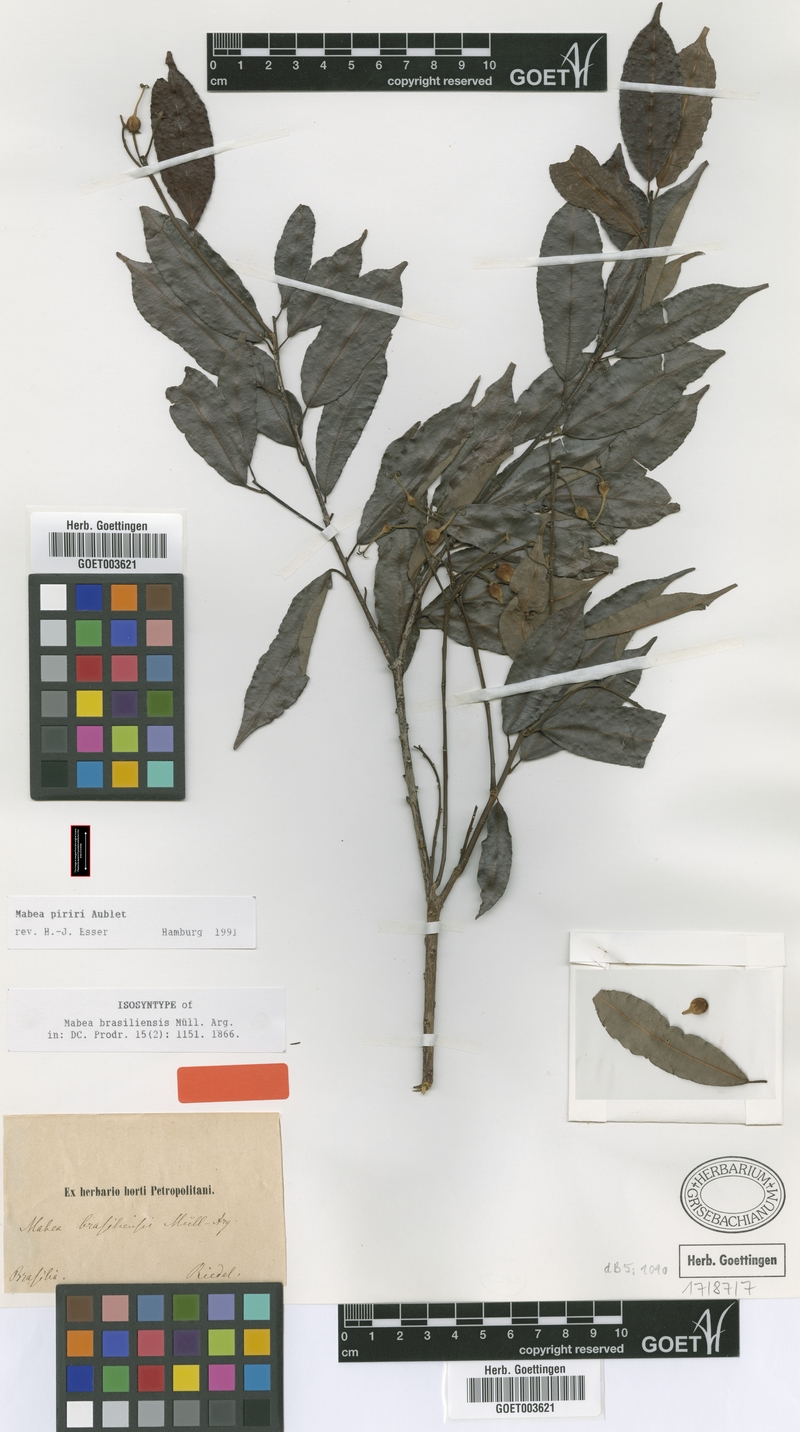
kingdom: Plantae
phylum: Tracheophyta
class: Magnoliopsida
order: Malpighiales
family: Euphorbiaceae
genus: Mabea
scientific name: Mabea piriri
